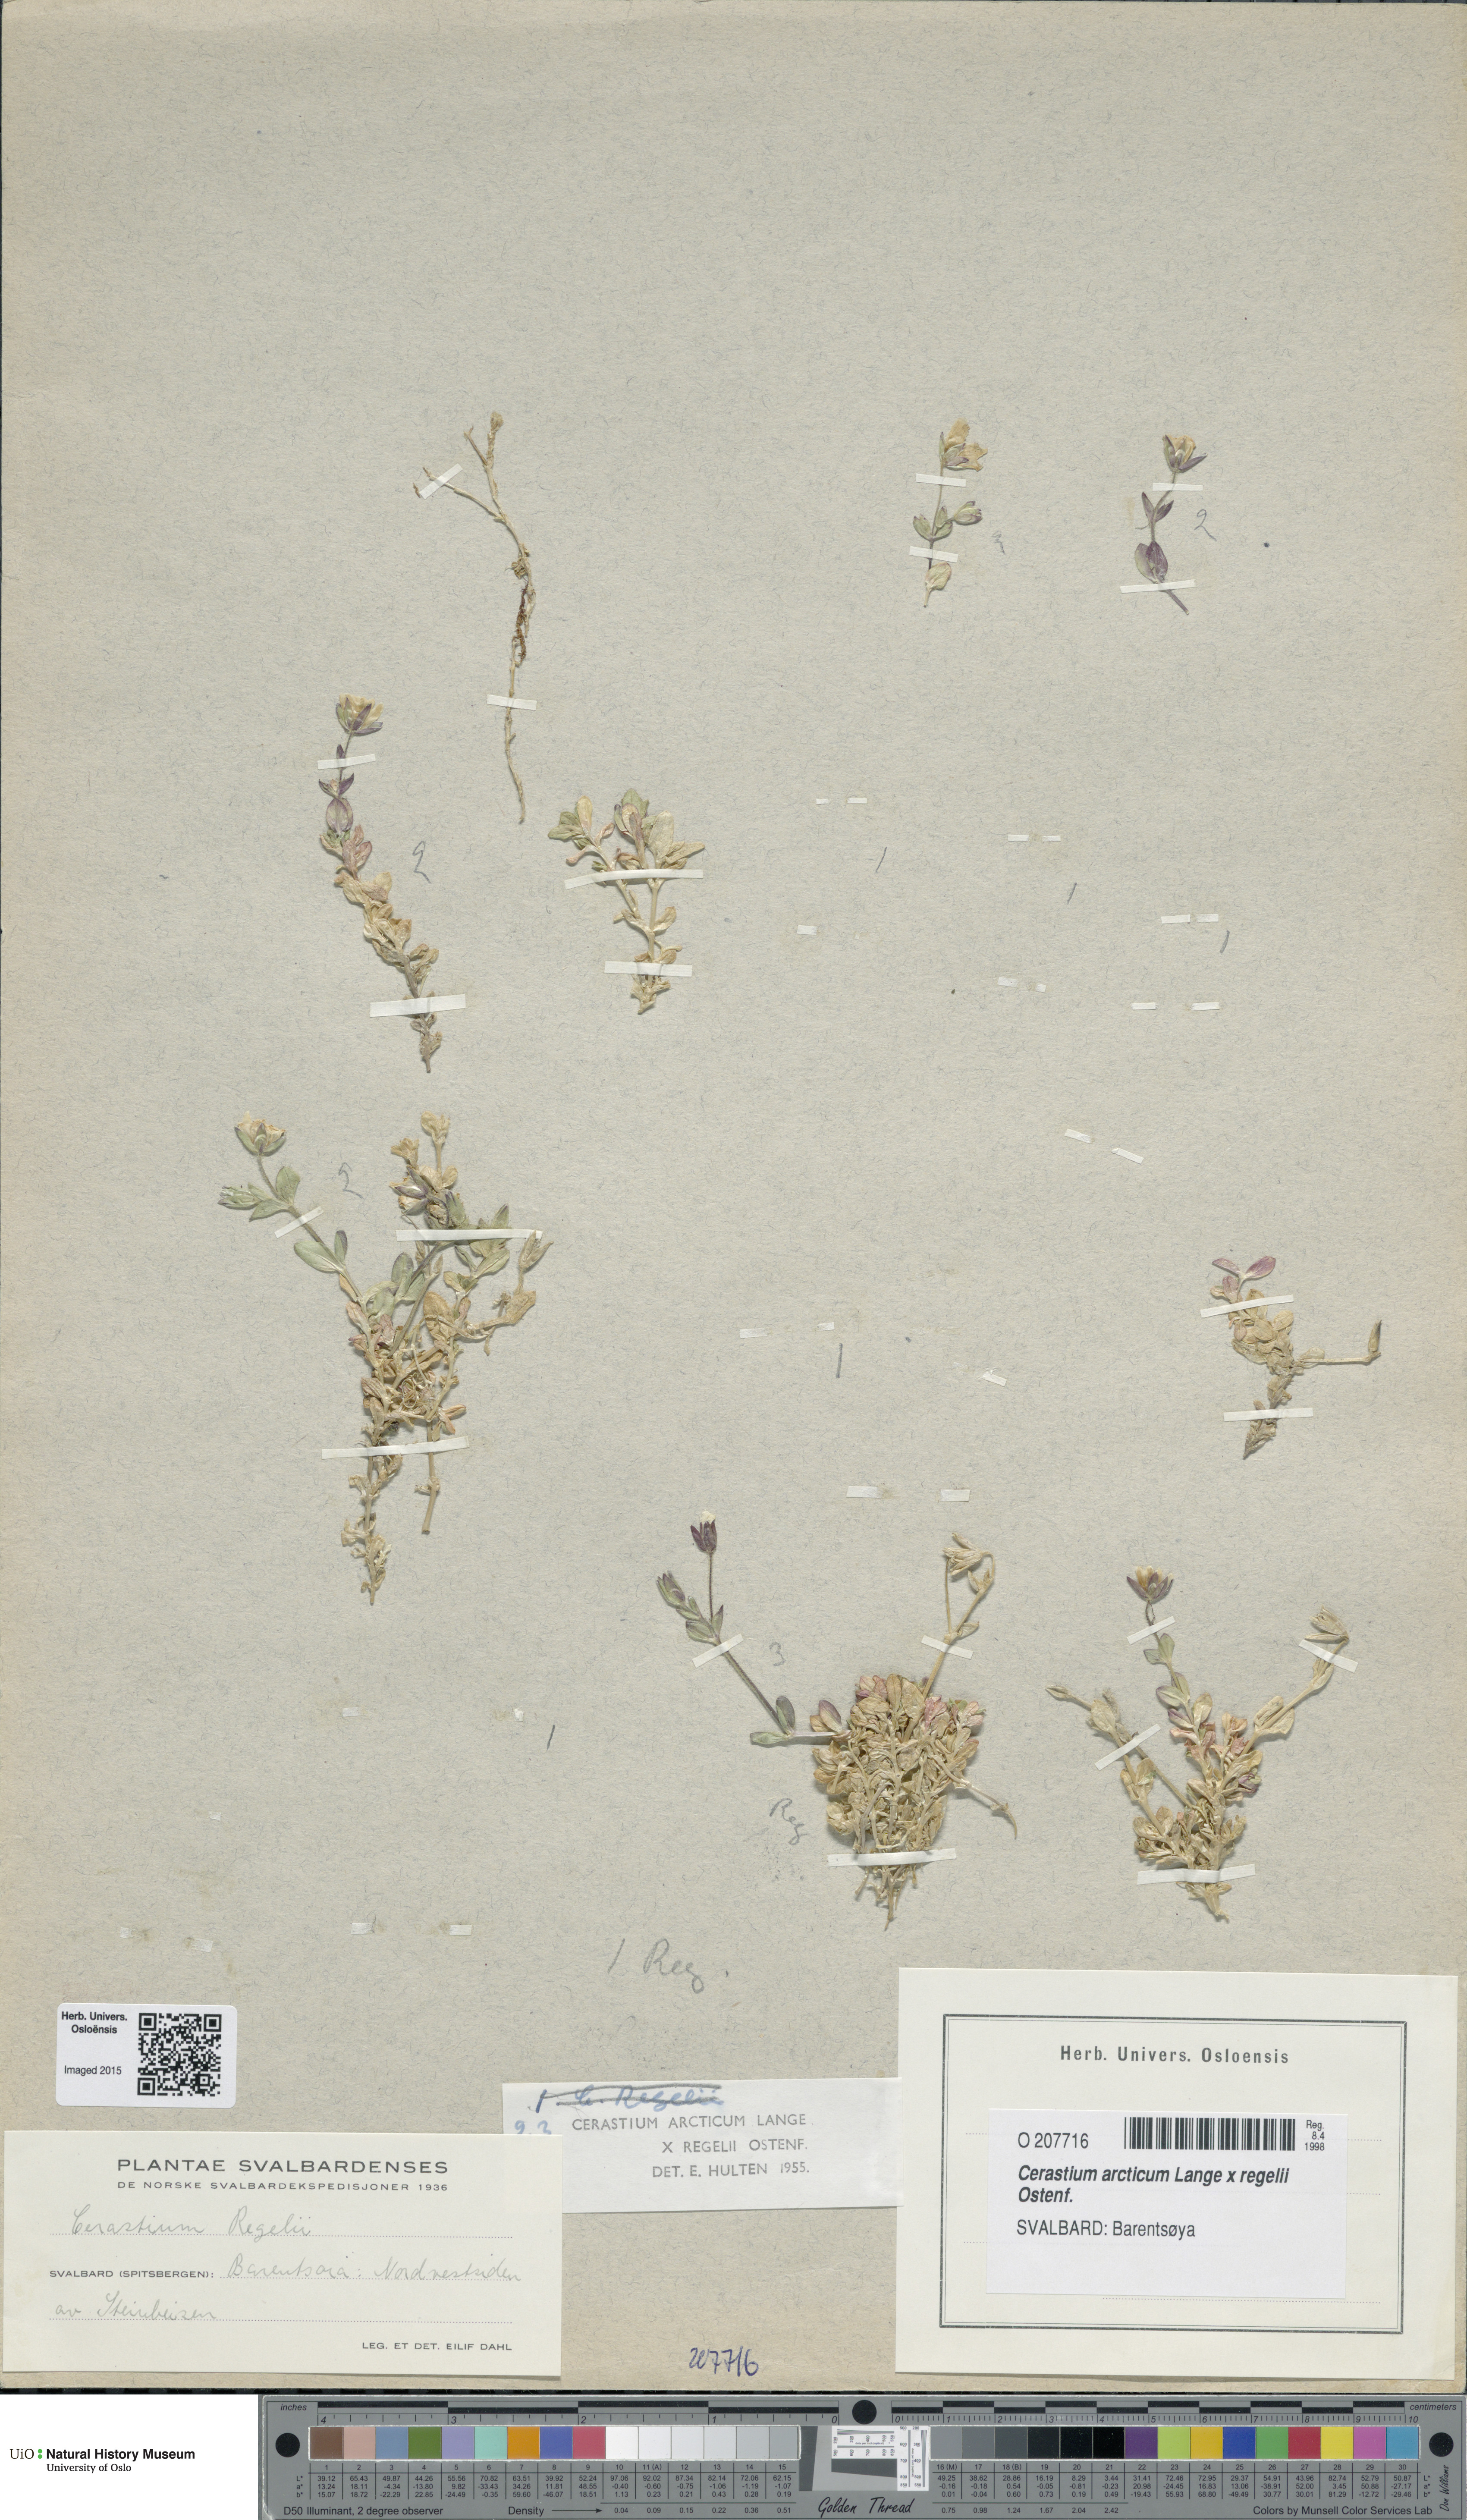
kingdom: Plantae
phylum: Tracheophyta
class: Magnoliopsida
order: Caryophyllales
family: Caryophyllaceae
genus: Cerastium
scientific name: Cerastium
